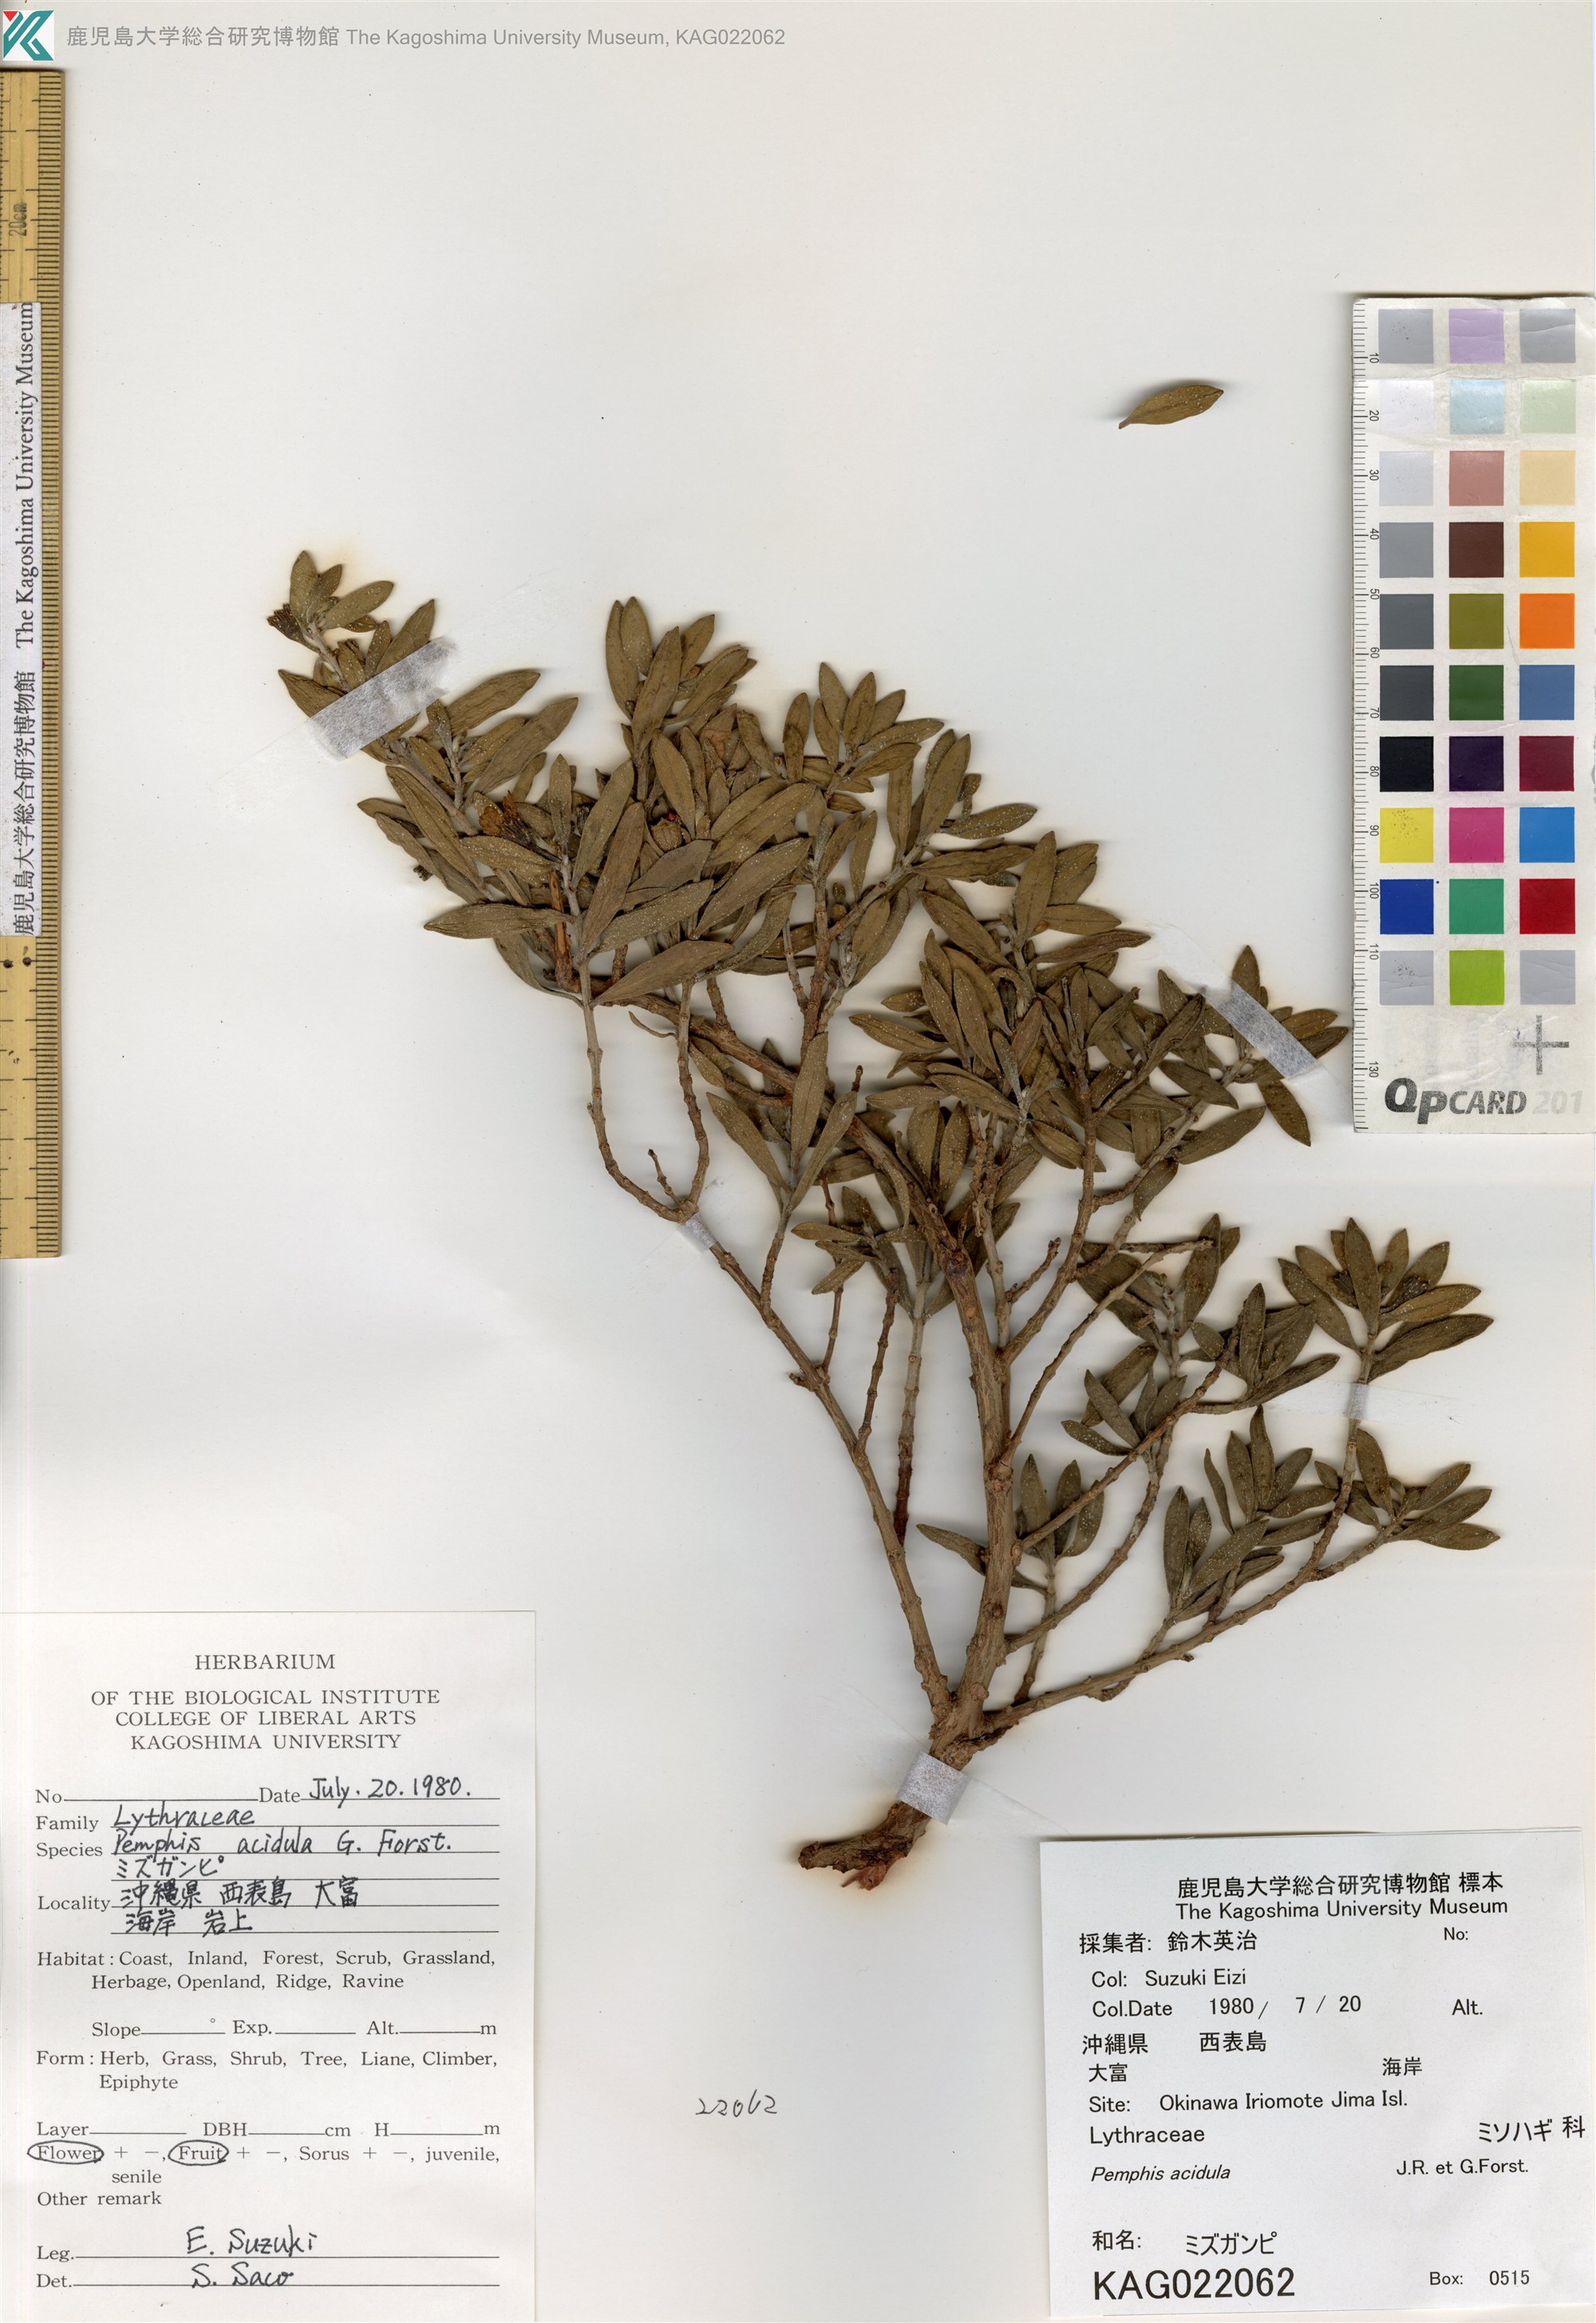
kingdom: Plantae
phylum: Tracheophyta
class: Magnoliopsida
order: Myrtales
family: Lythraceae
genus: Pemphis
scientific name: Pemphis acidula
